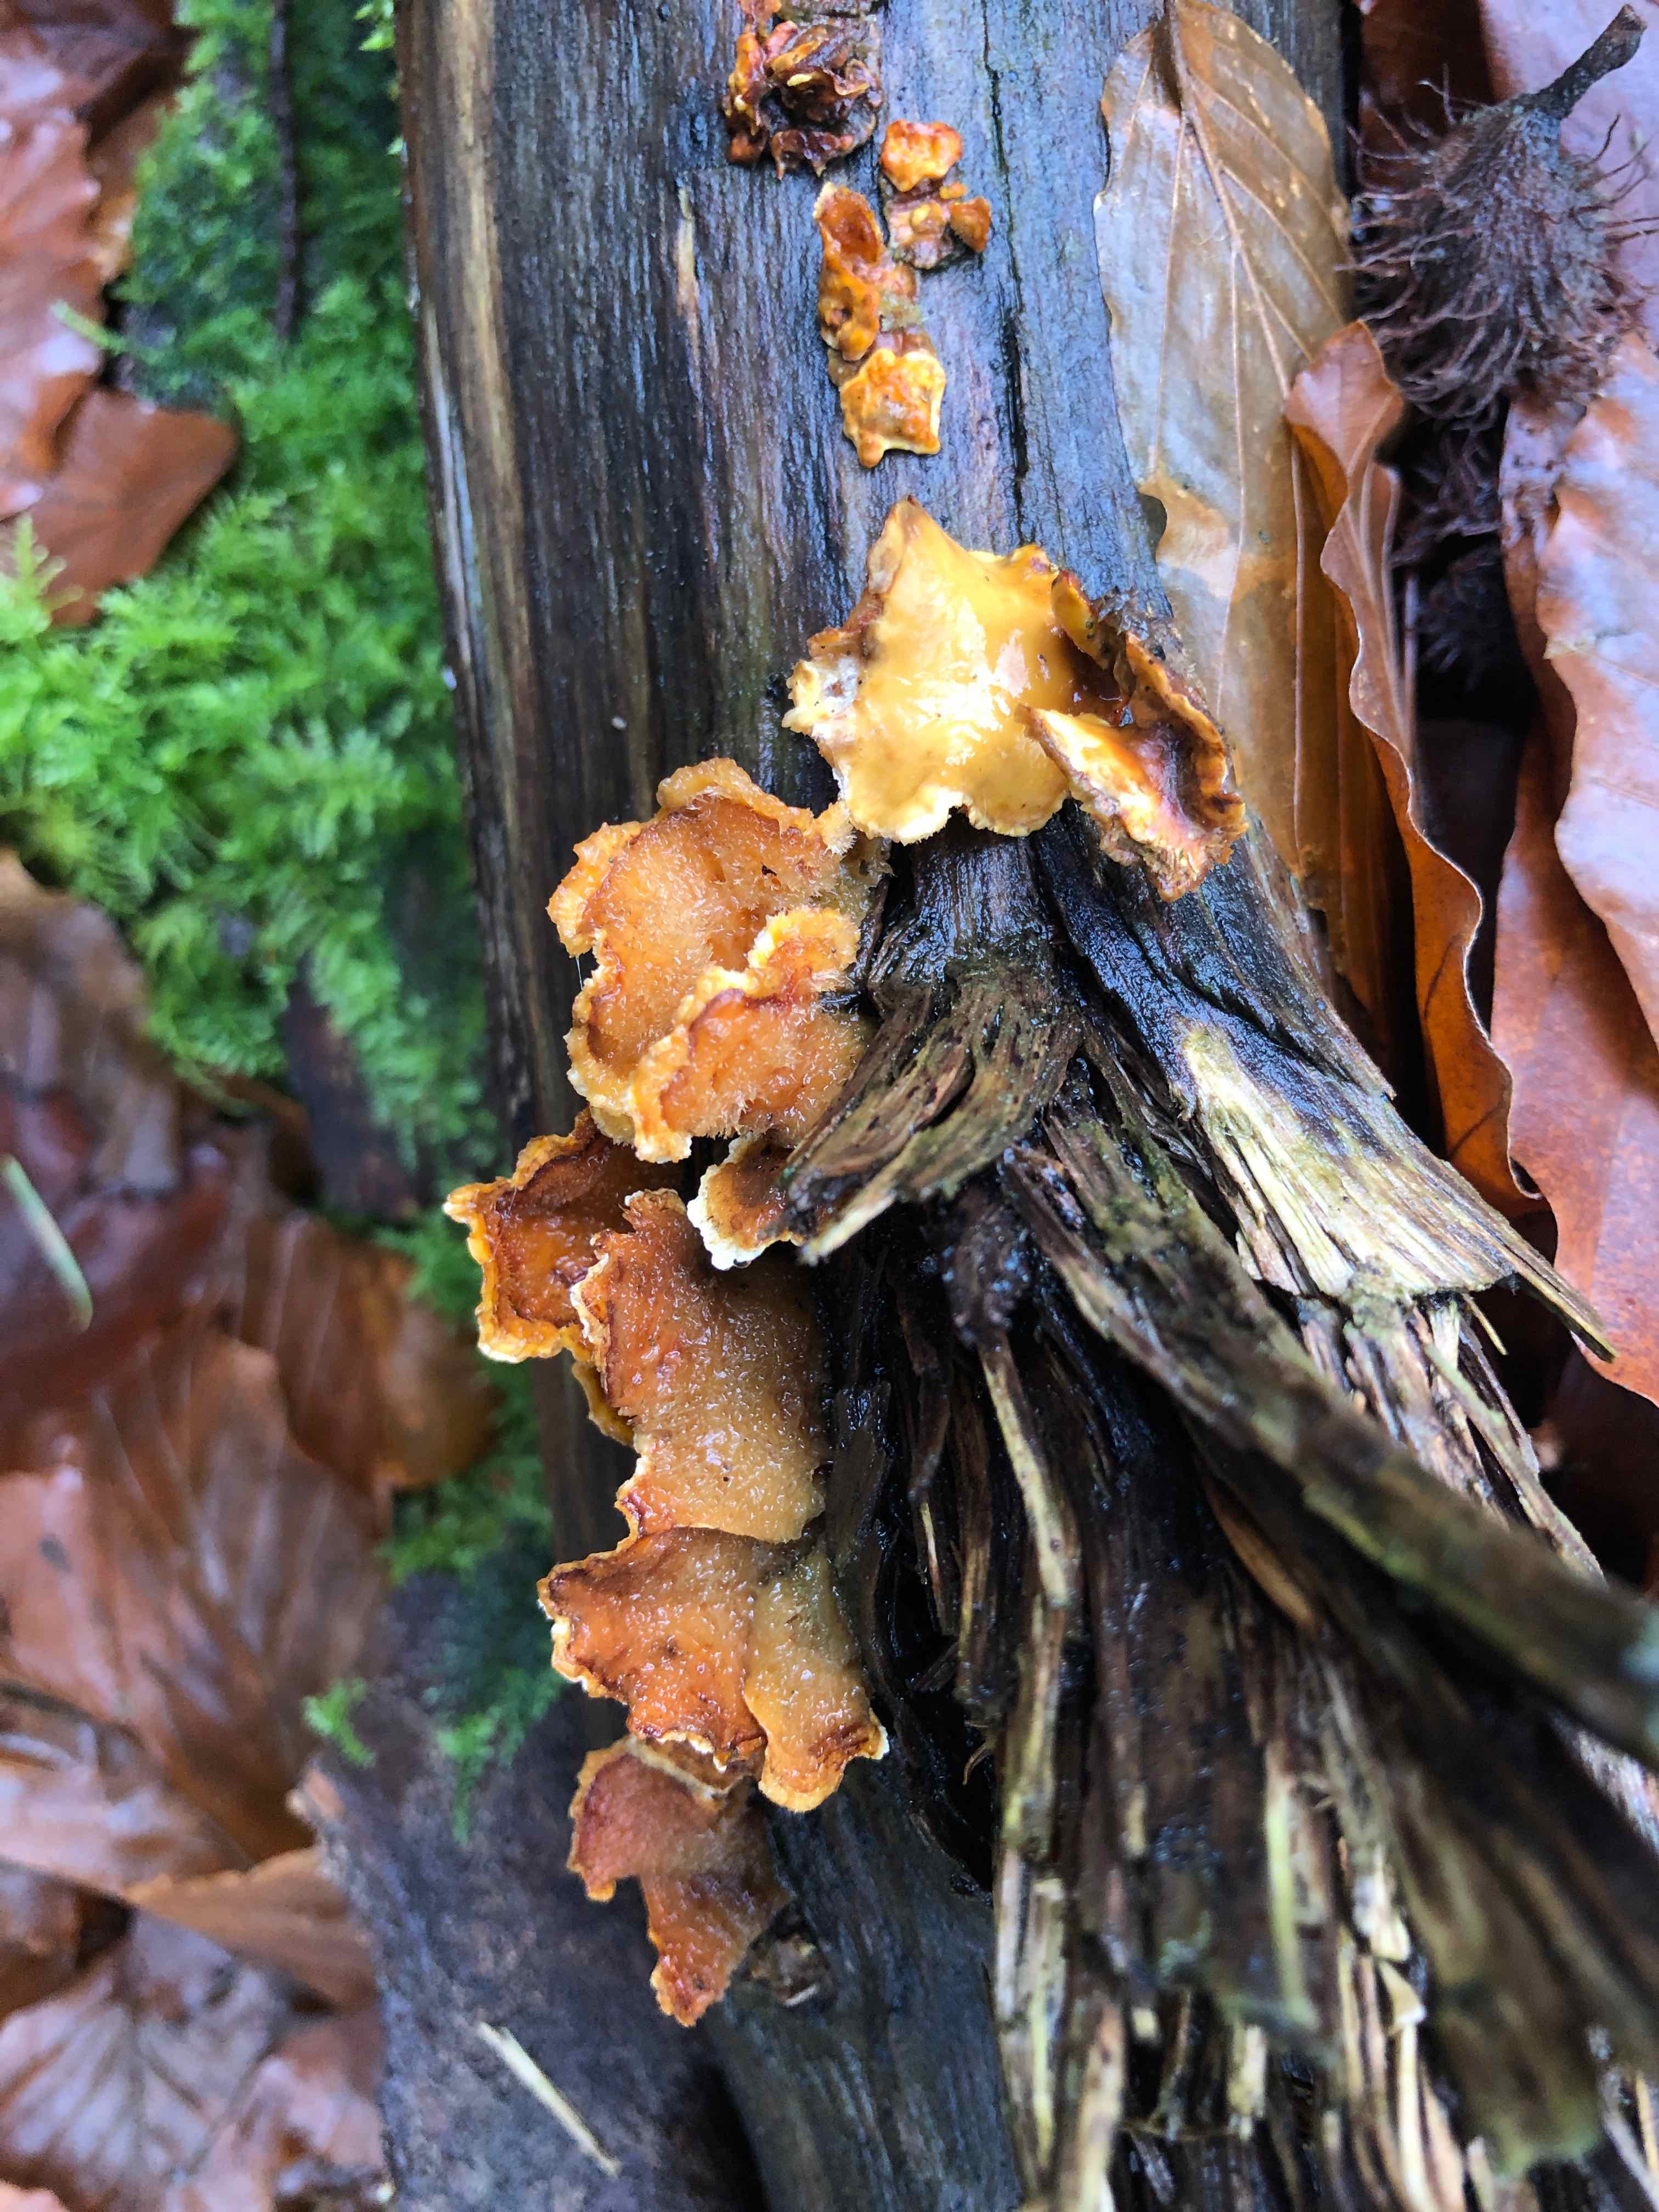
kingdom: Fungi
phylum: Basidiomycota
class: Agaricomycetes
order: Russulales
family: Stereaceae
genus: Stereum
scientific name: Stereum hirsutum
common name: håret lædersvamp
